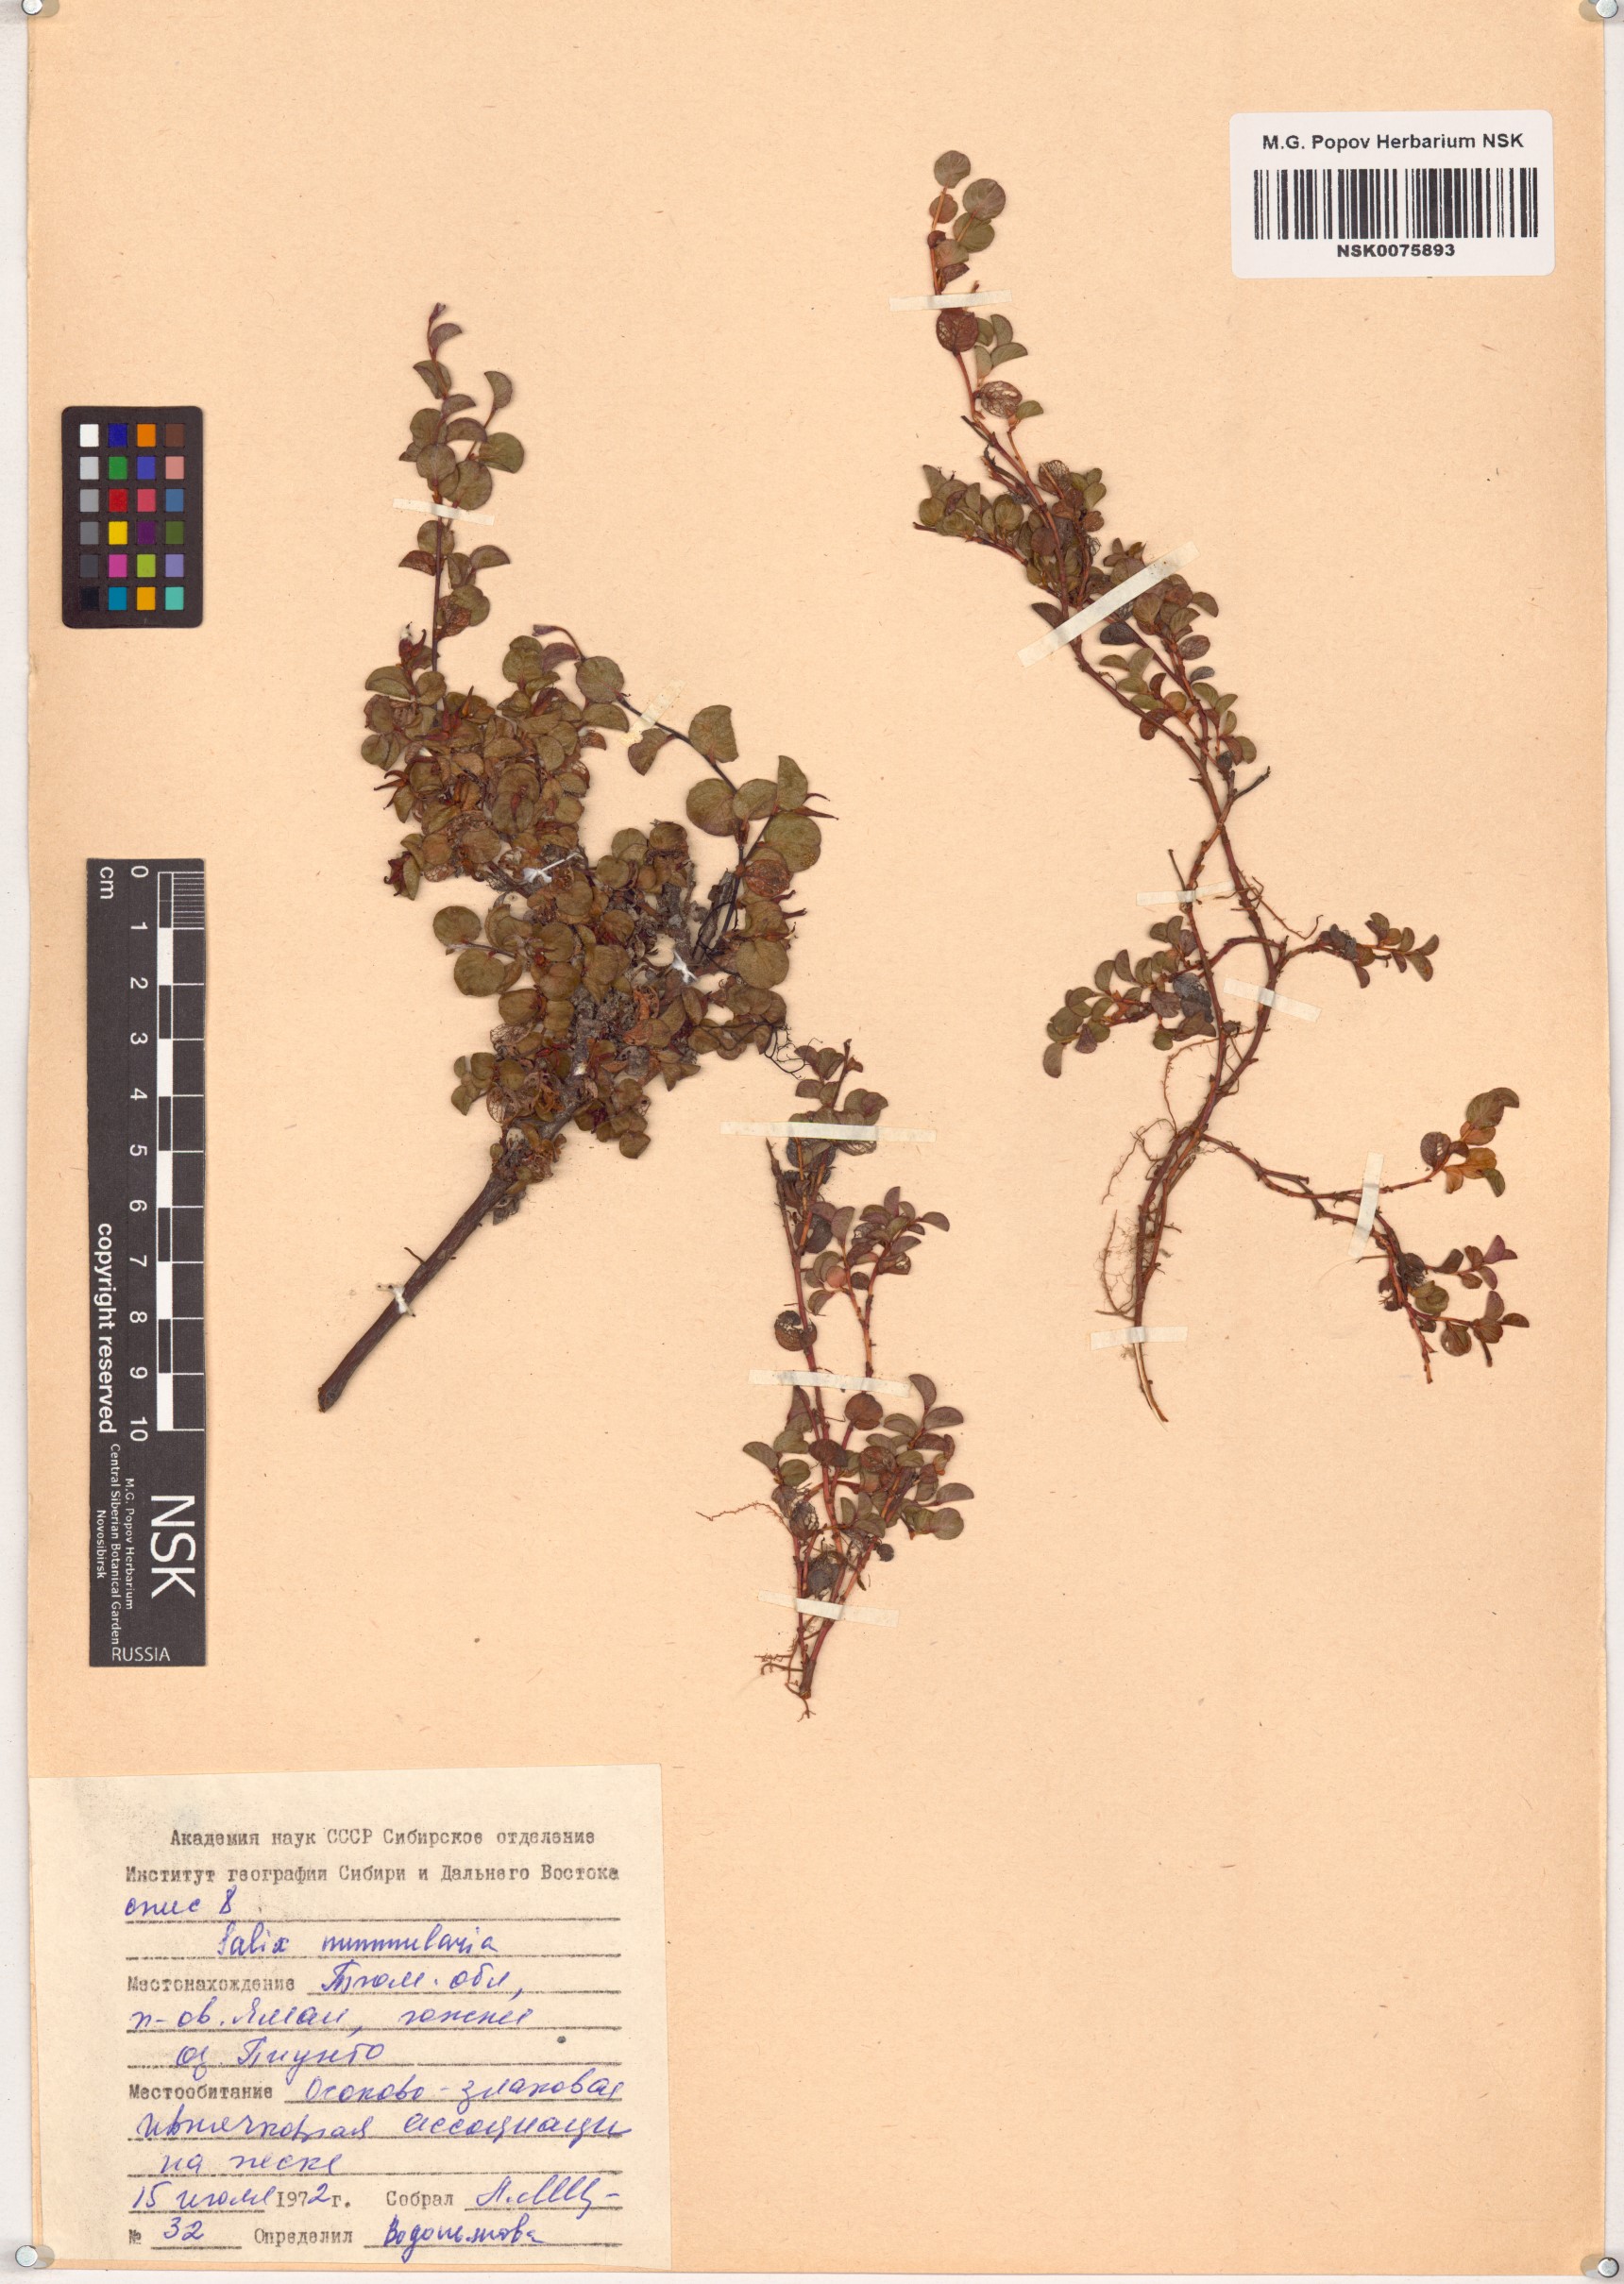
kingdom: Plantae
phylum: Tracheophyta
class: Magnoliopsida
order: Malpighiales
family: Salicaceae
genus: Salix
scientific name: Salix nummularia
